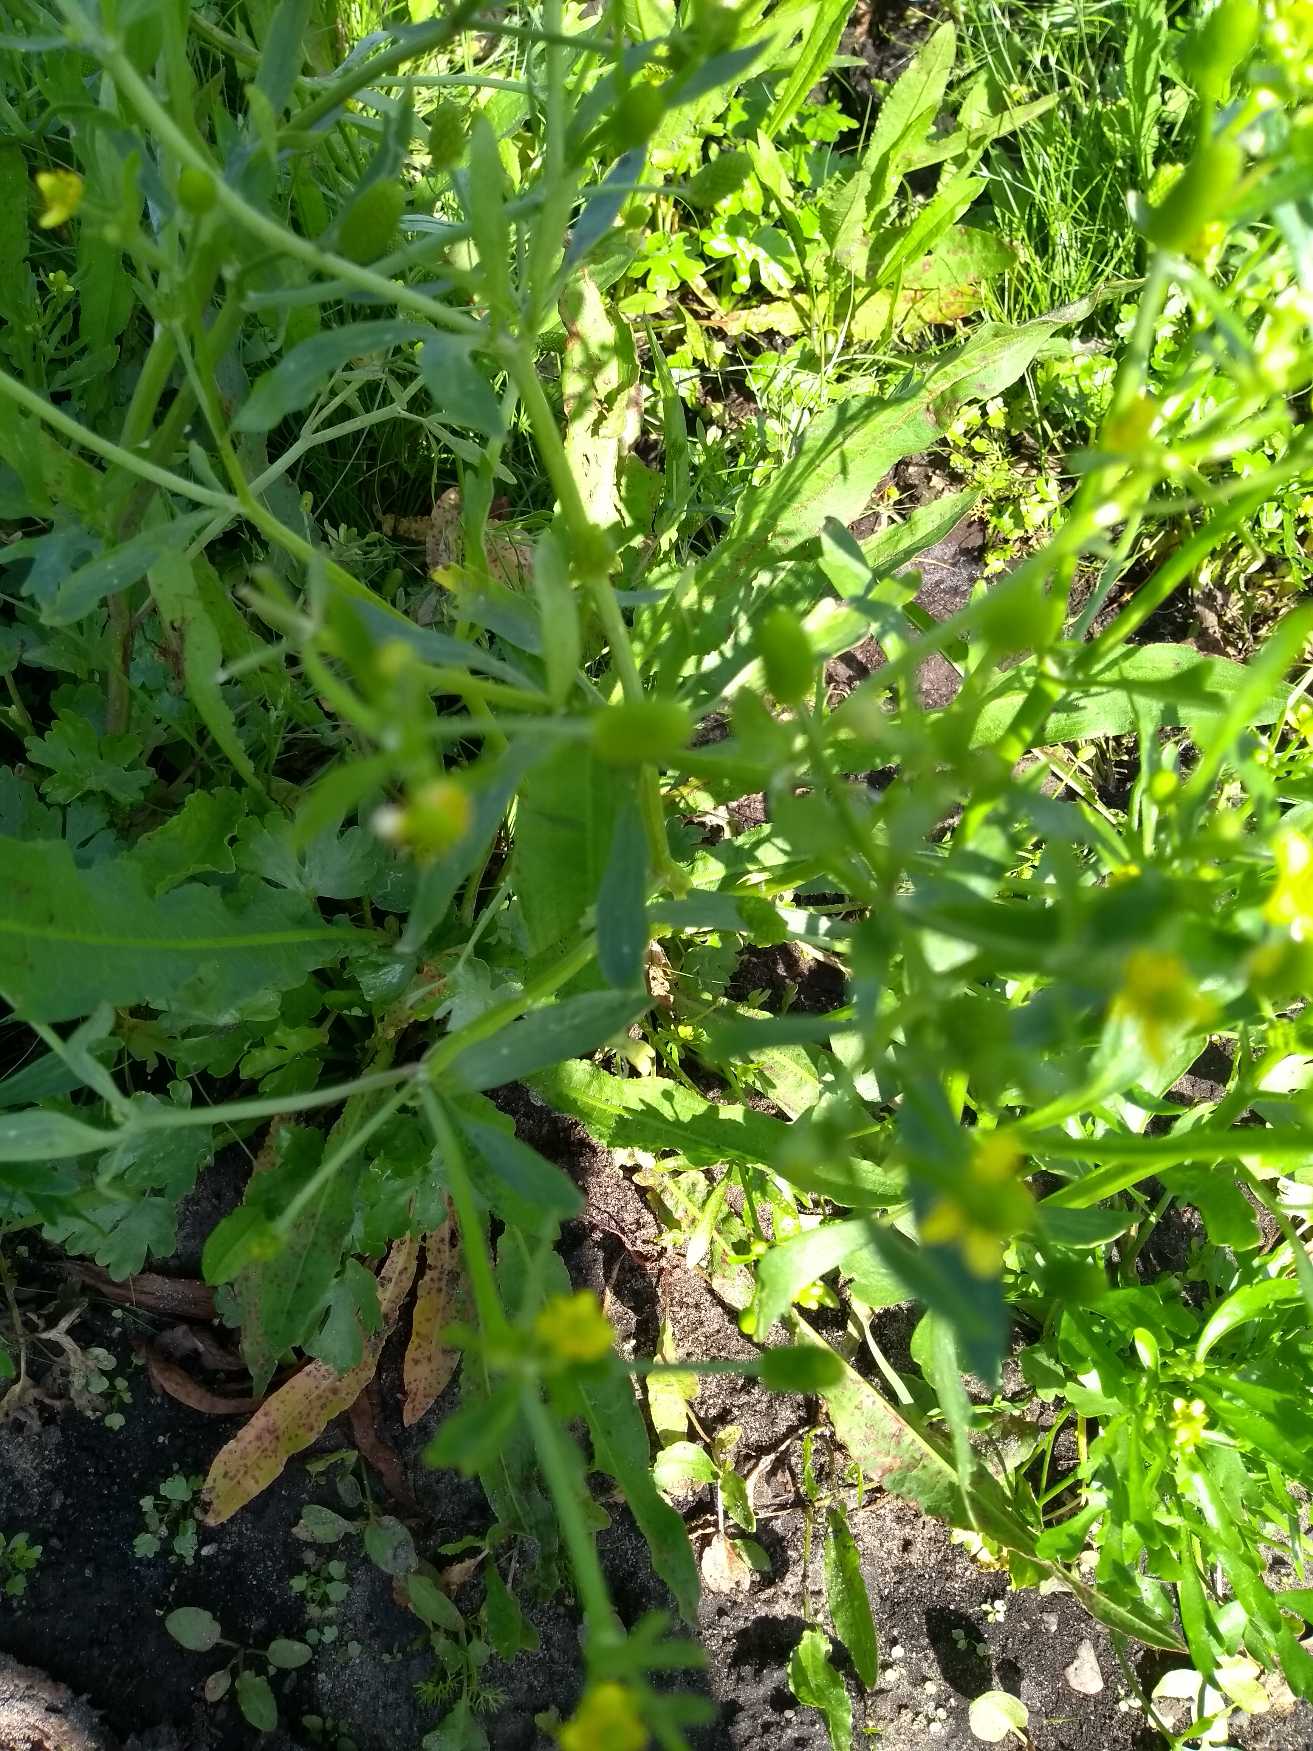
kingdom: Plantae
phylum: Tracheophyta
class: Magnoliopsida
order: Ranunculales
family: Ranunculaceae
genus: Ranunculus
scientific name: Ranunculus sceleratus
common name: Tigger-ranunkel
